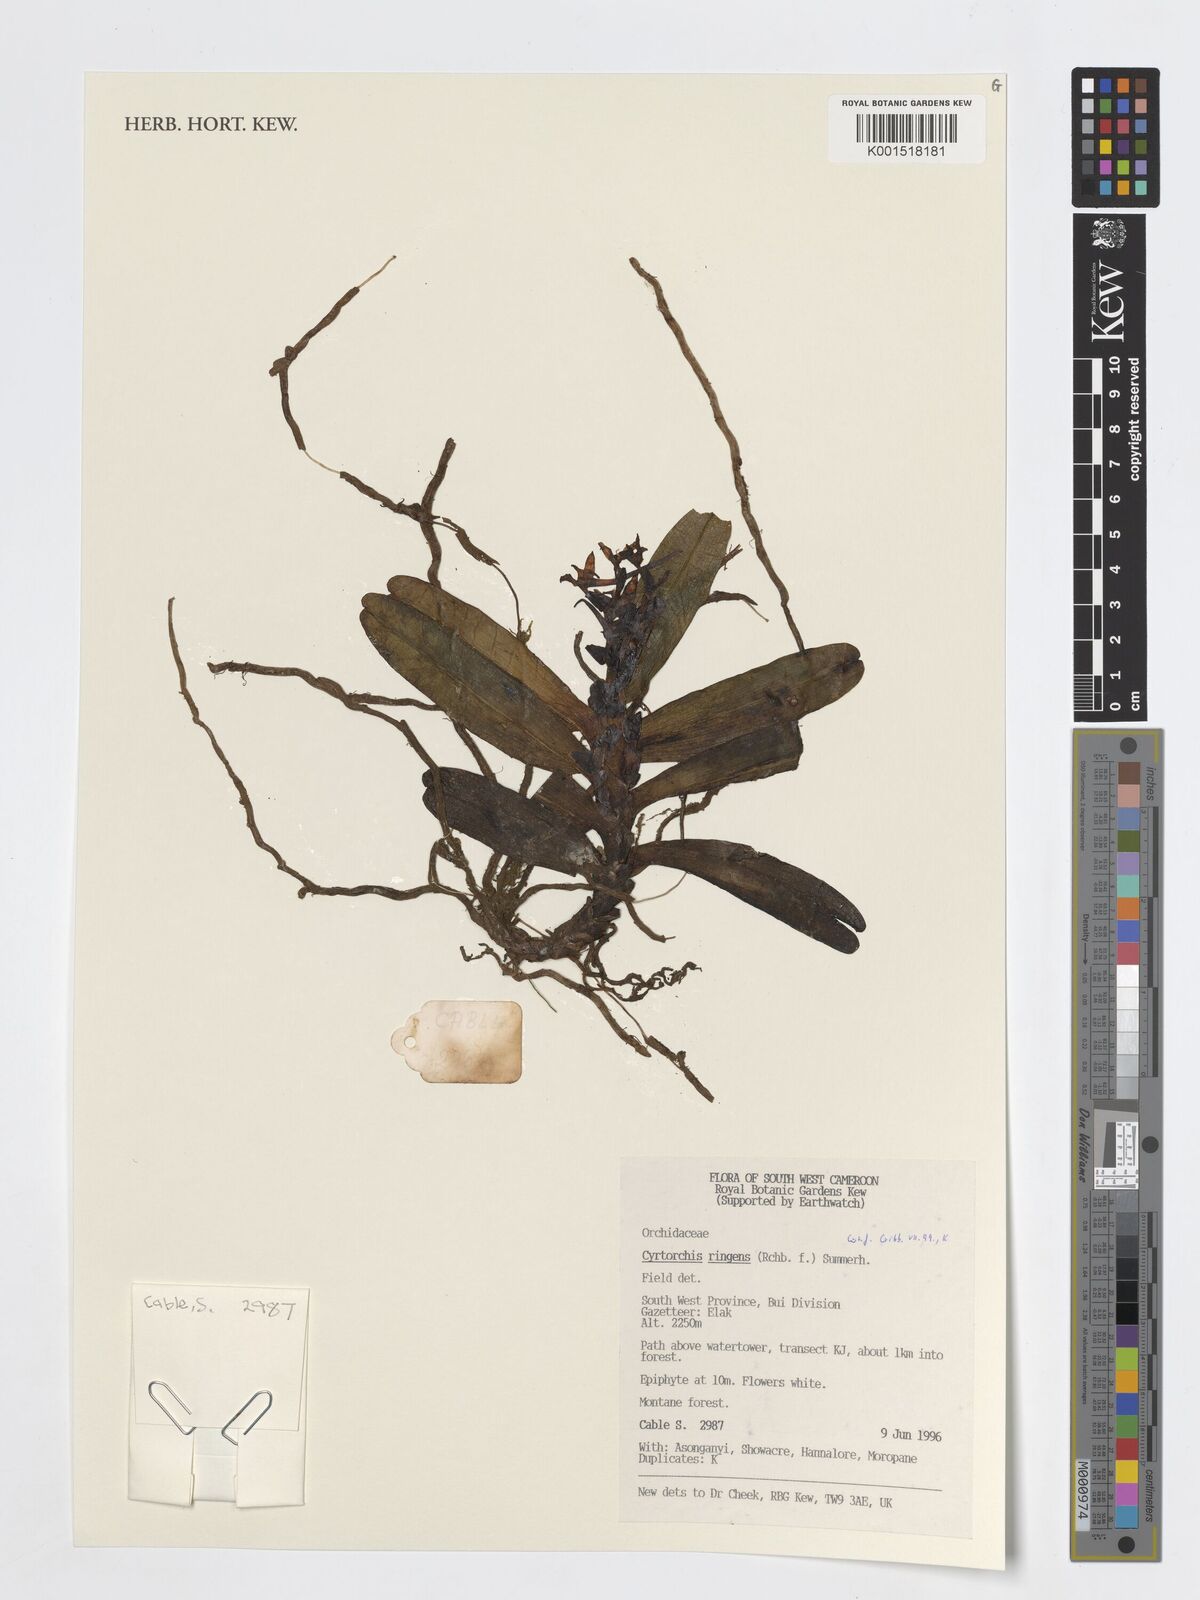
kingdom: Plantae
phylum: Tracheophyta
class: Liliopsida
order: Asparagales
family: Orchidaceae
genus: Cyrtorchis
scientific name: Cyrtorchis ringens
